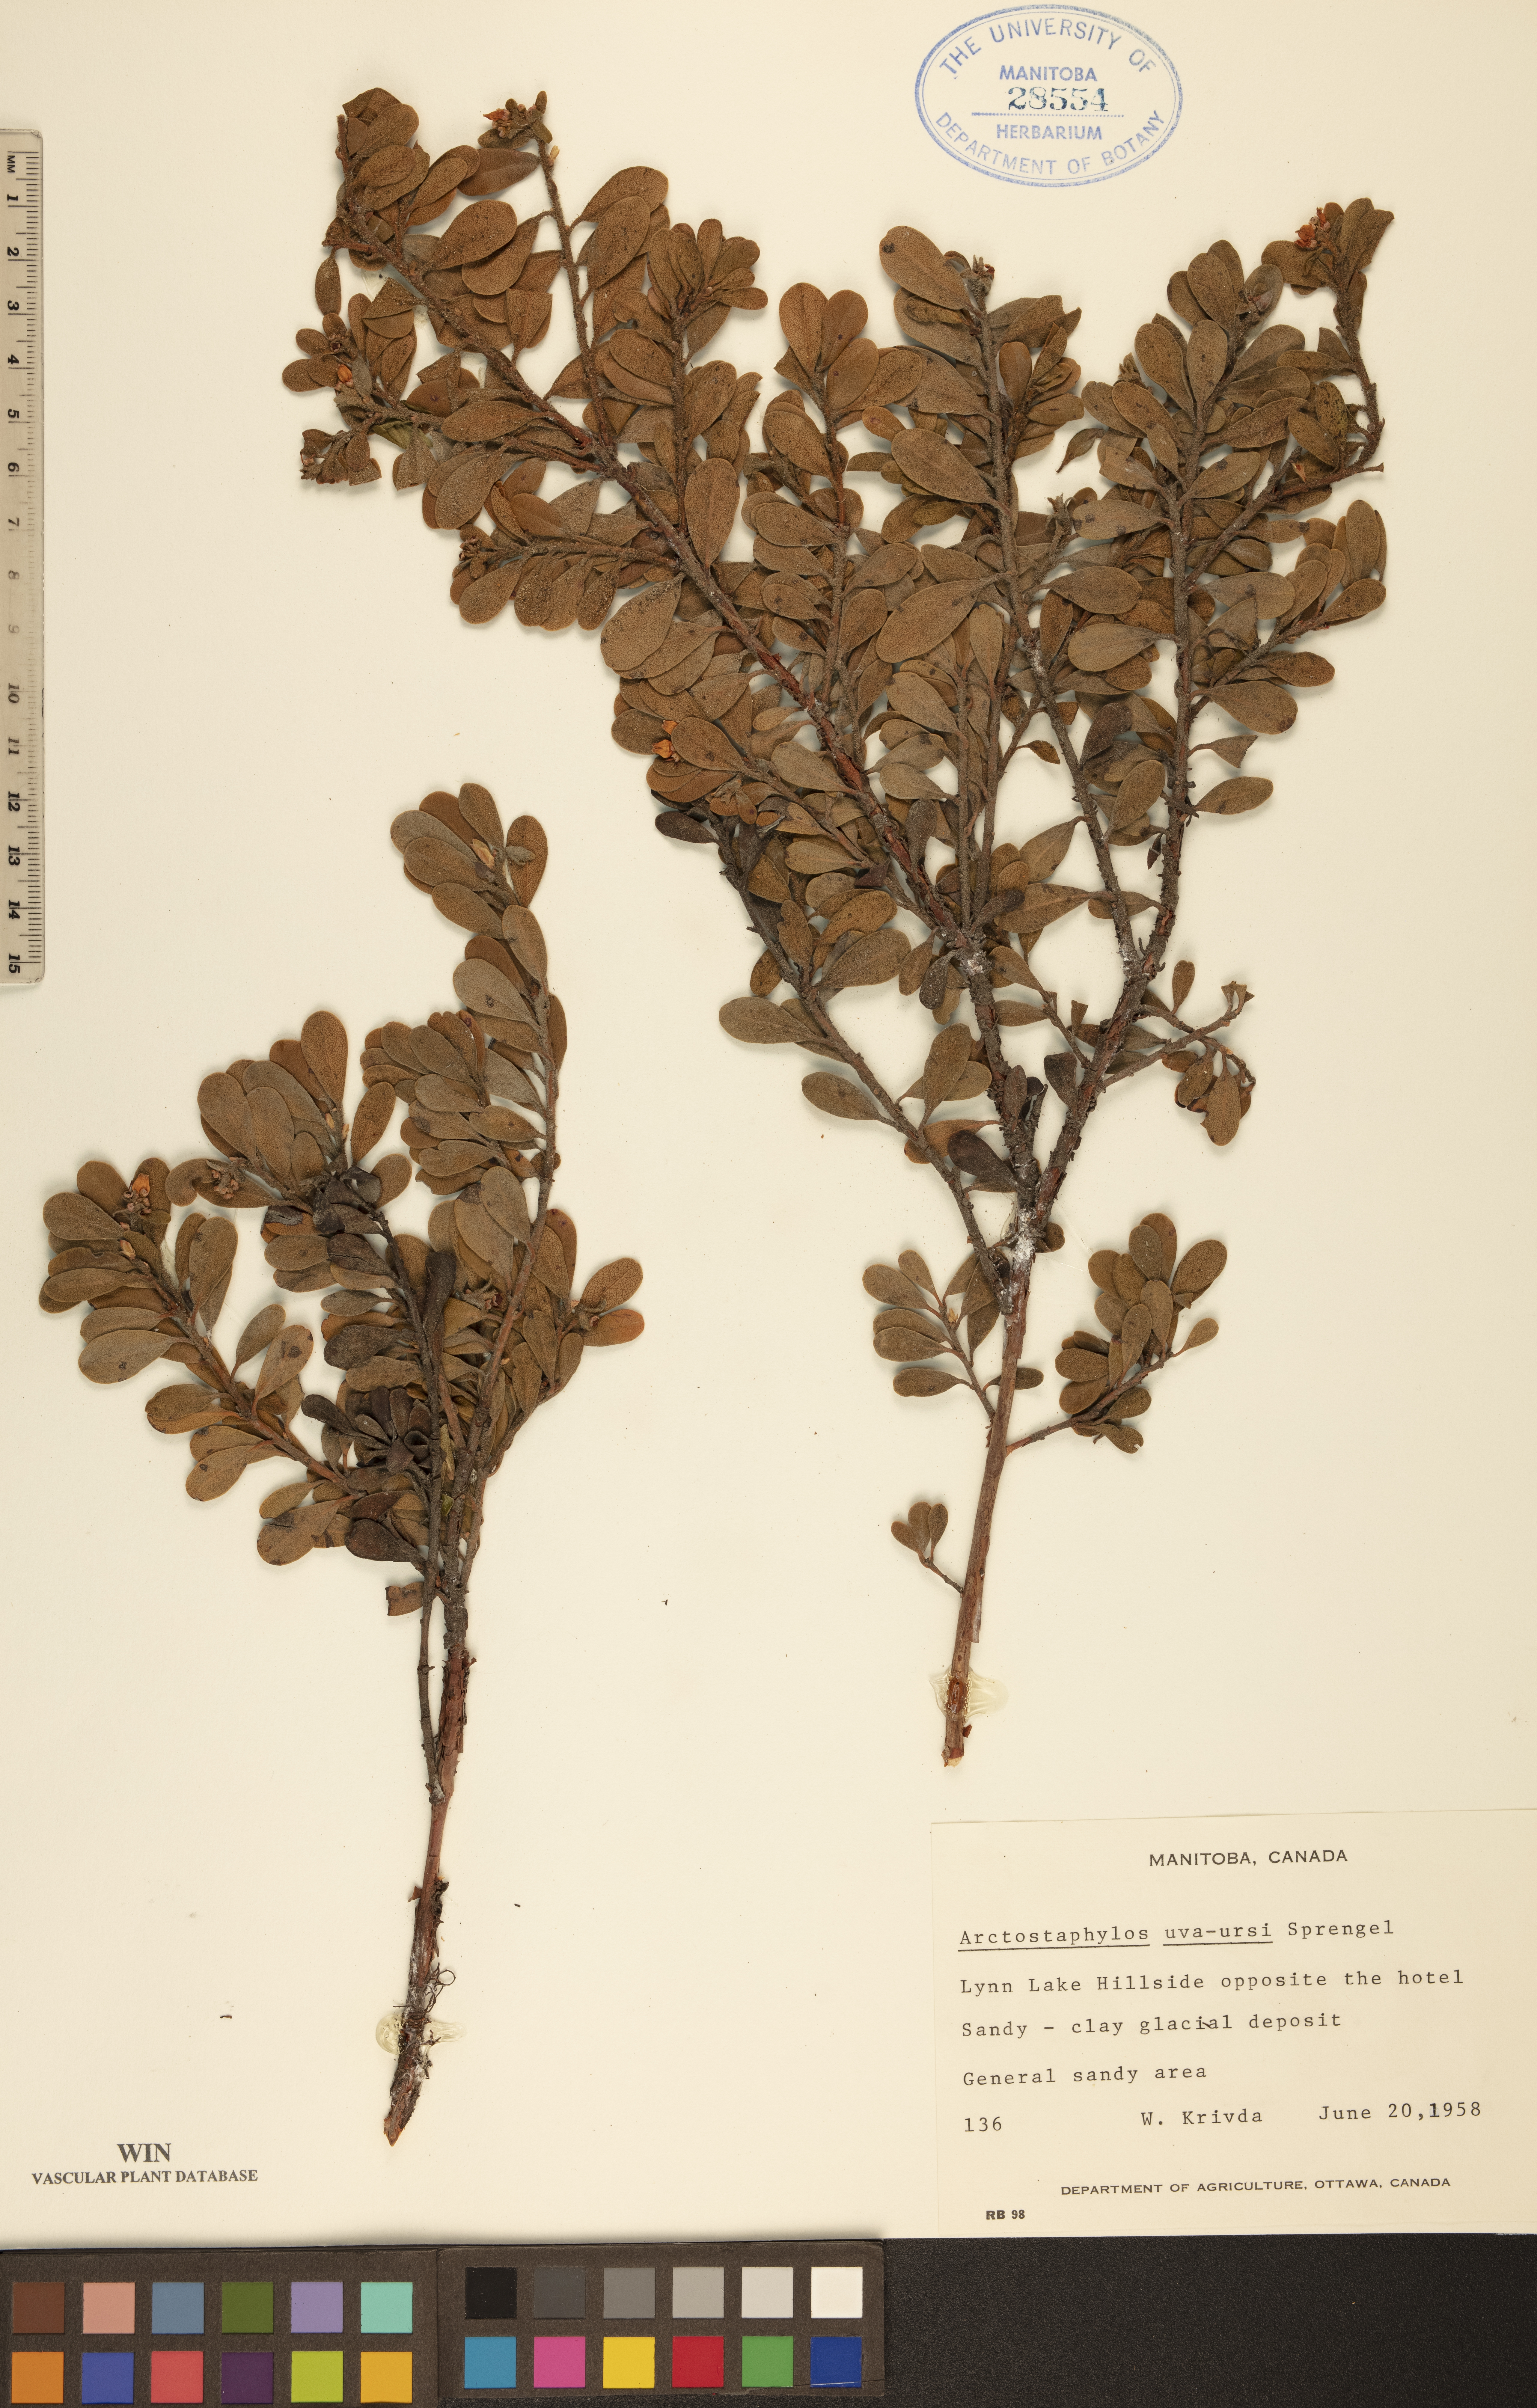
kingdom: Plantae
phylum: Tracheophyta
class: Magnoliopsida
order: Ericales
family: Ericaceae
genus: Arctostaphylos
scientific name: Arctostaphylos uva-ursi
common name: Bearberry
